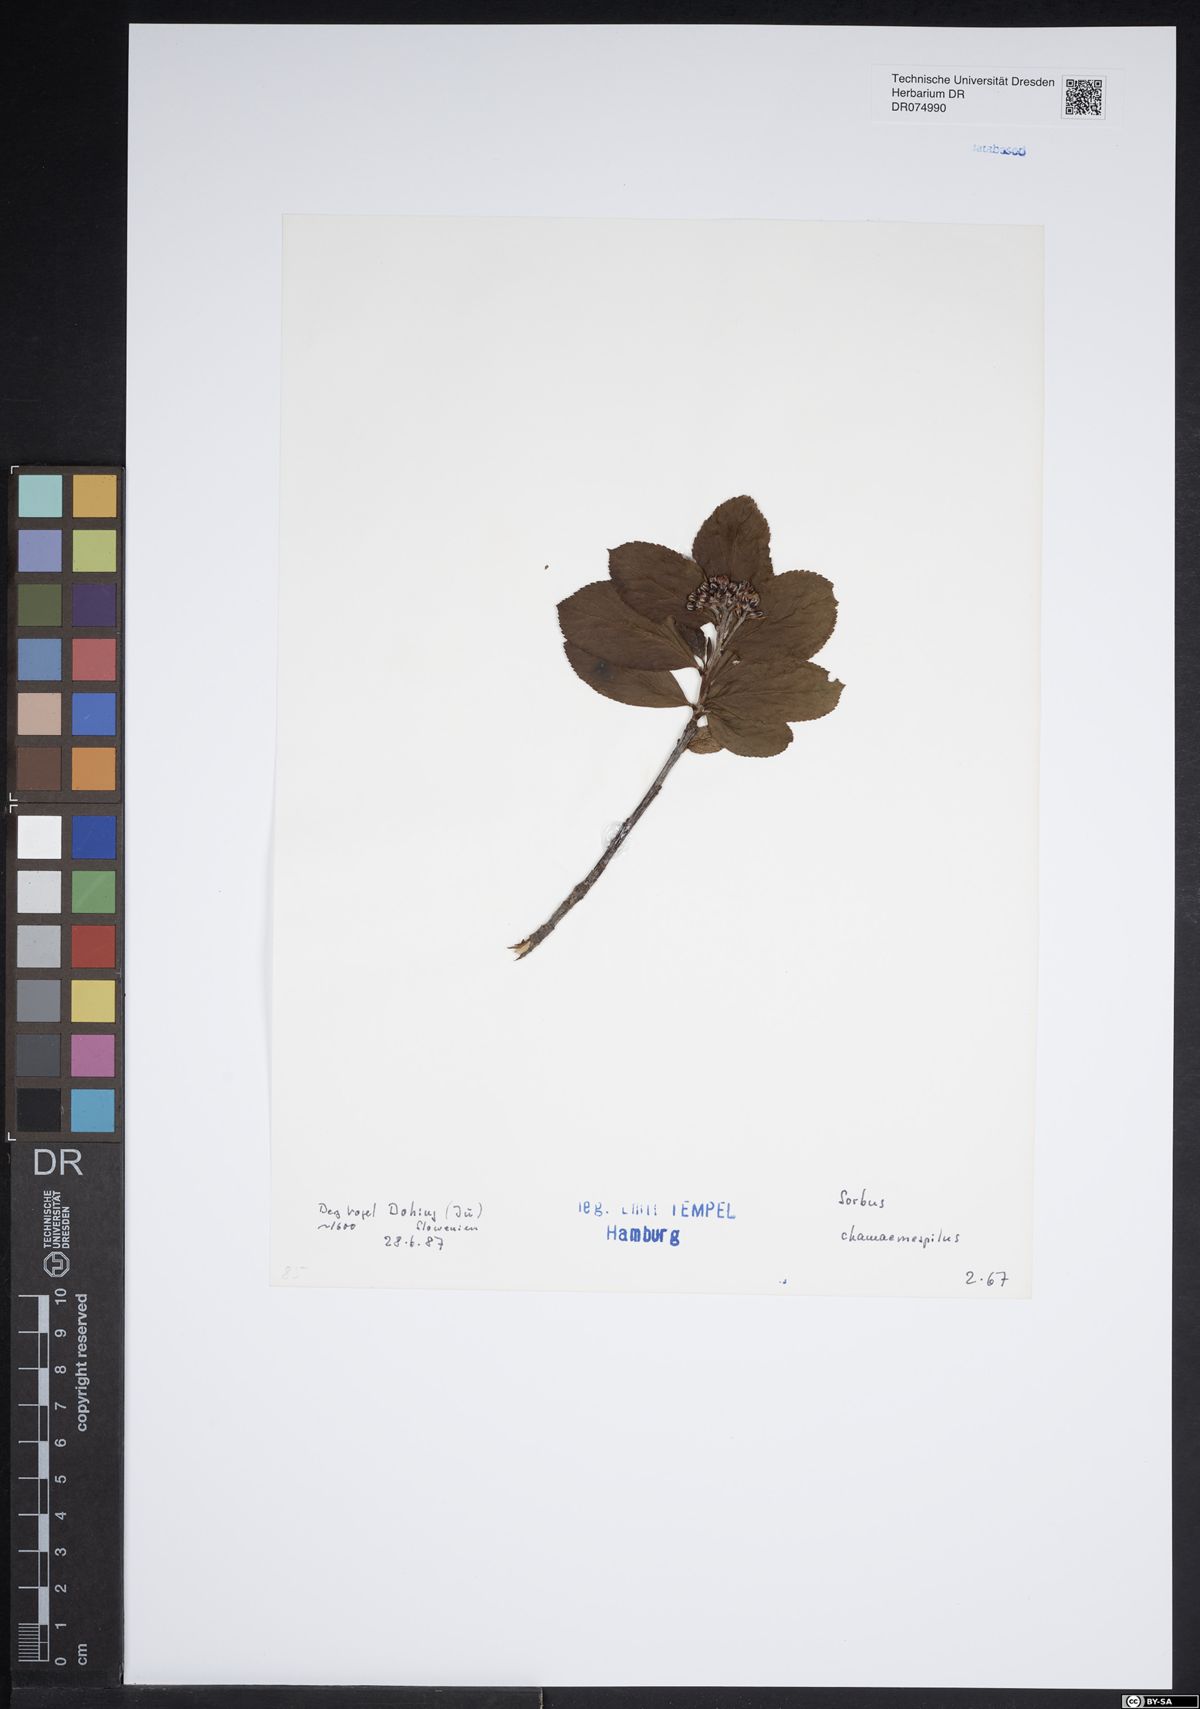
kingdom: Plantae
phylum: Tracheophyta
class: Magnoliopsida
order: Rosales
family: Rosaceae
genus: Chamaemespilus
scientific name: Chamaemespilus alpina
